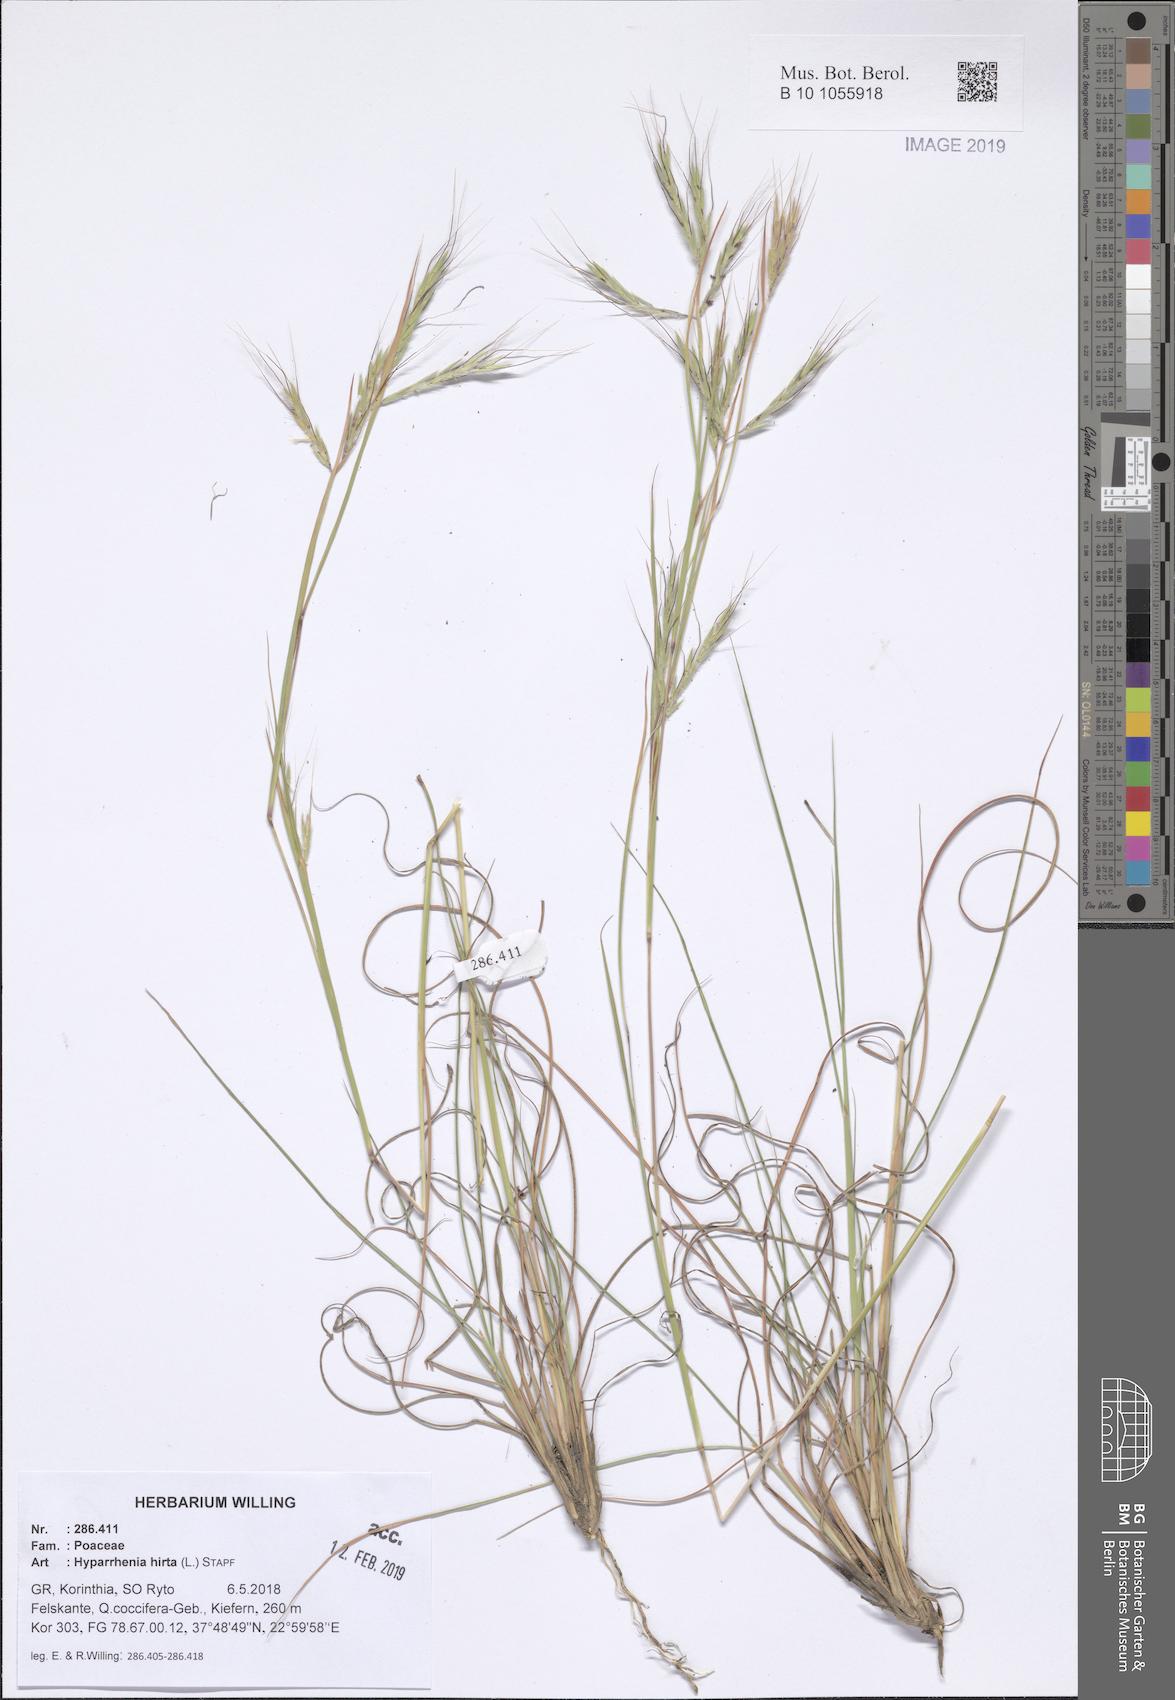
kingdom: Plantae
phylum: Tracheophyta
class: Liliopsida
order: Poales
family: Poaceae
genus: Hyparrhenia
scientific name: Hyparrhenia hirta
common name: Thatching grass
